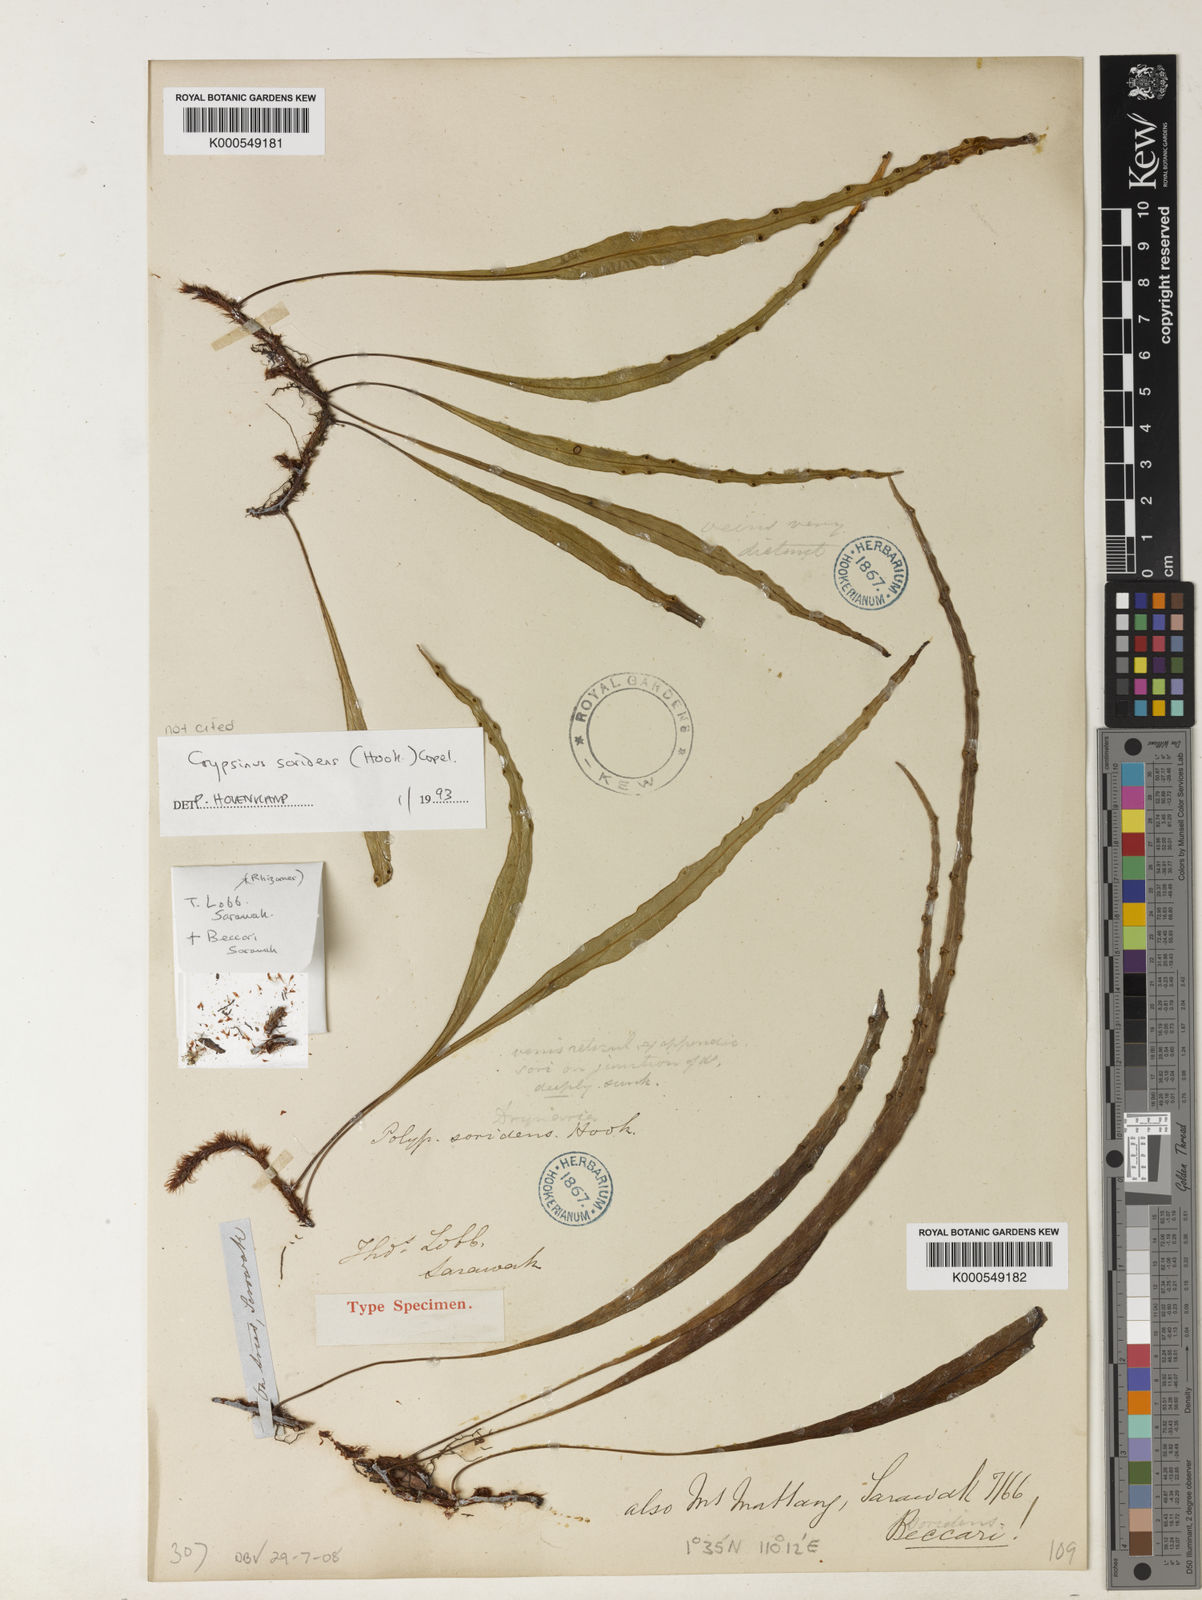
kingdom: Plantae
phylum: Tracheophyta
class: Polypodiopsida
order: Polypodiales
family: Polypodiaceae
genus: Selliguea
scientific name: Selliguea
